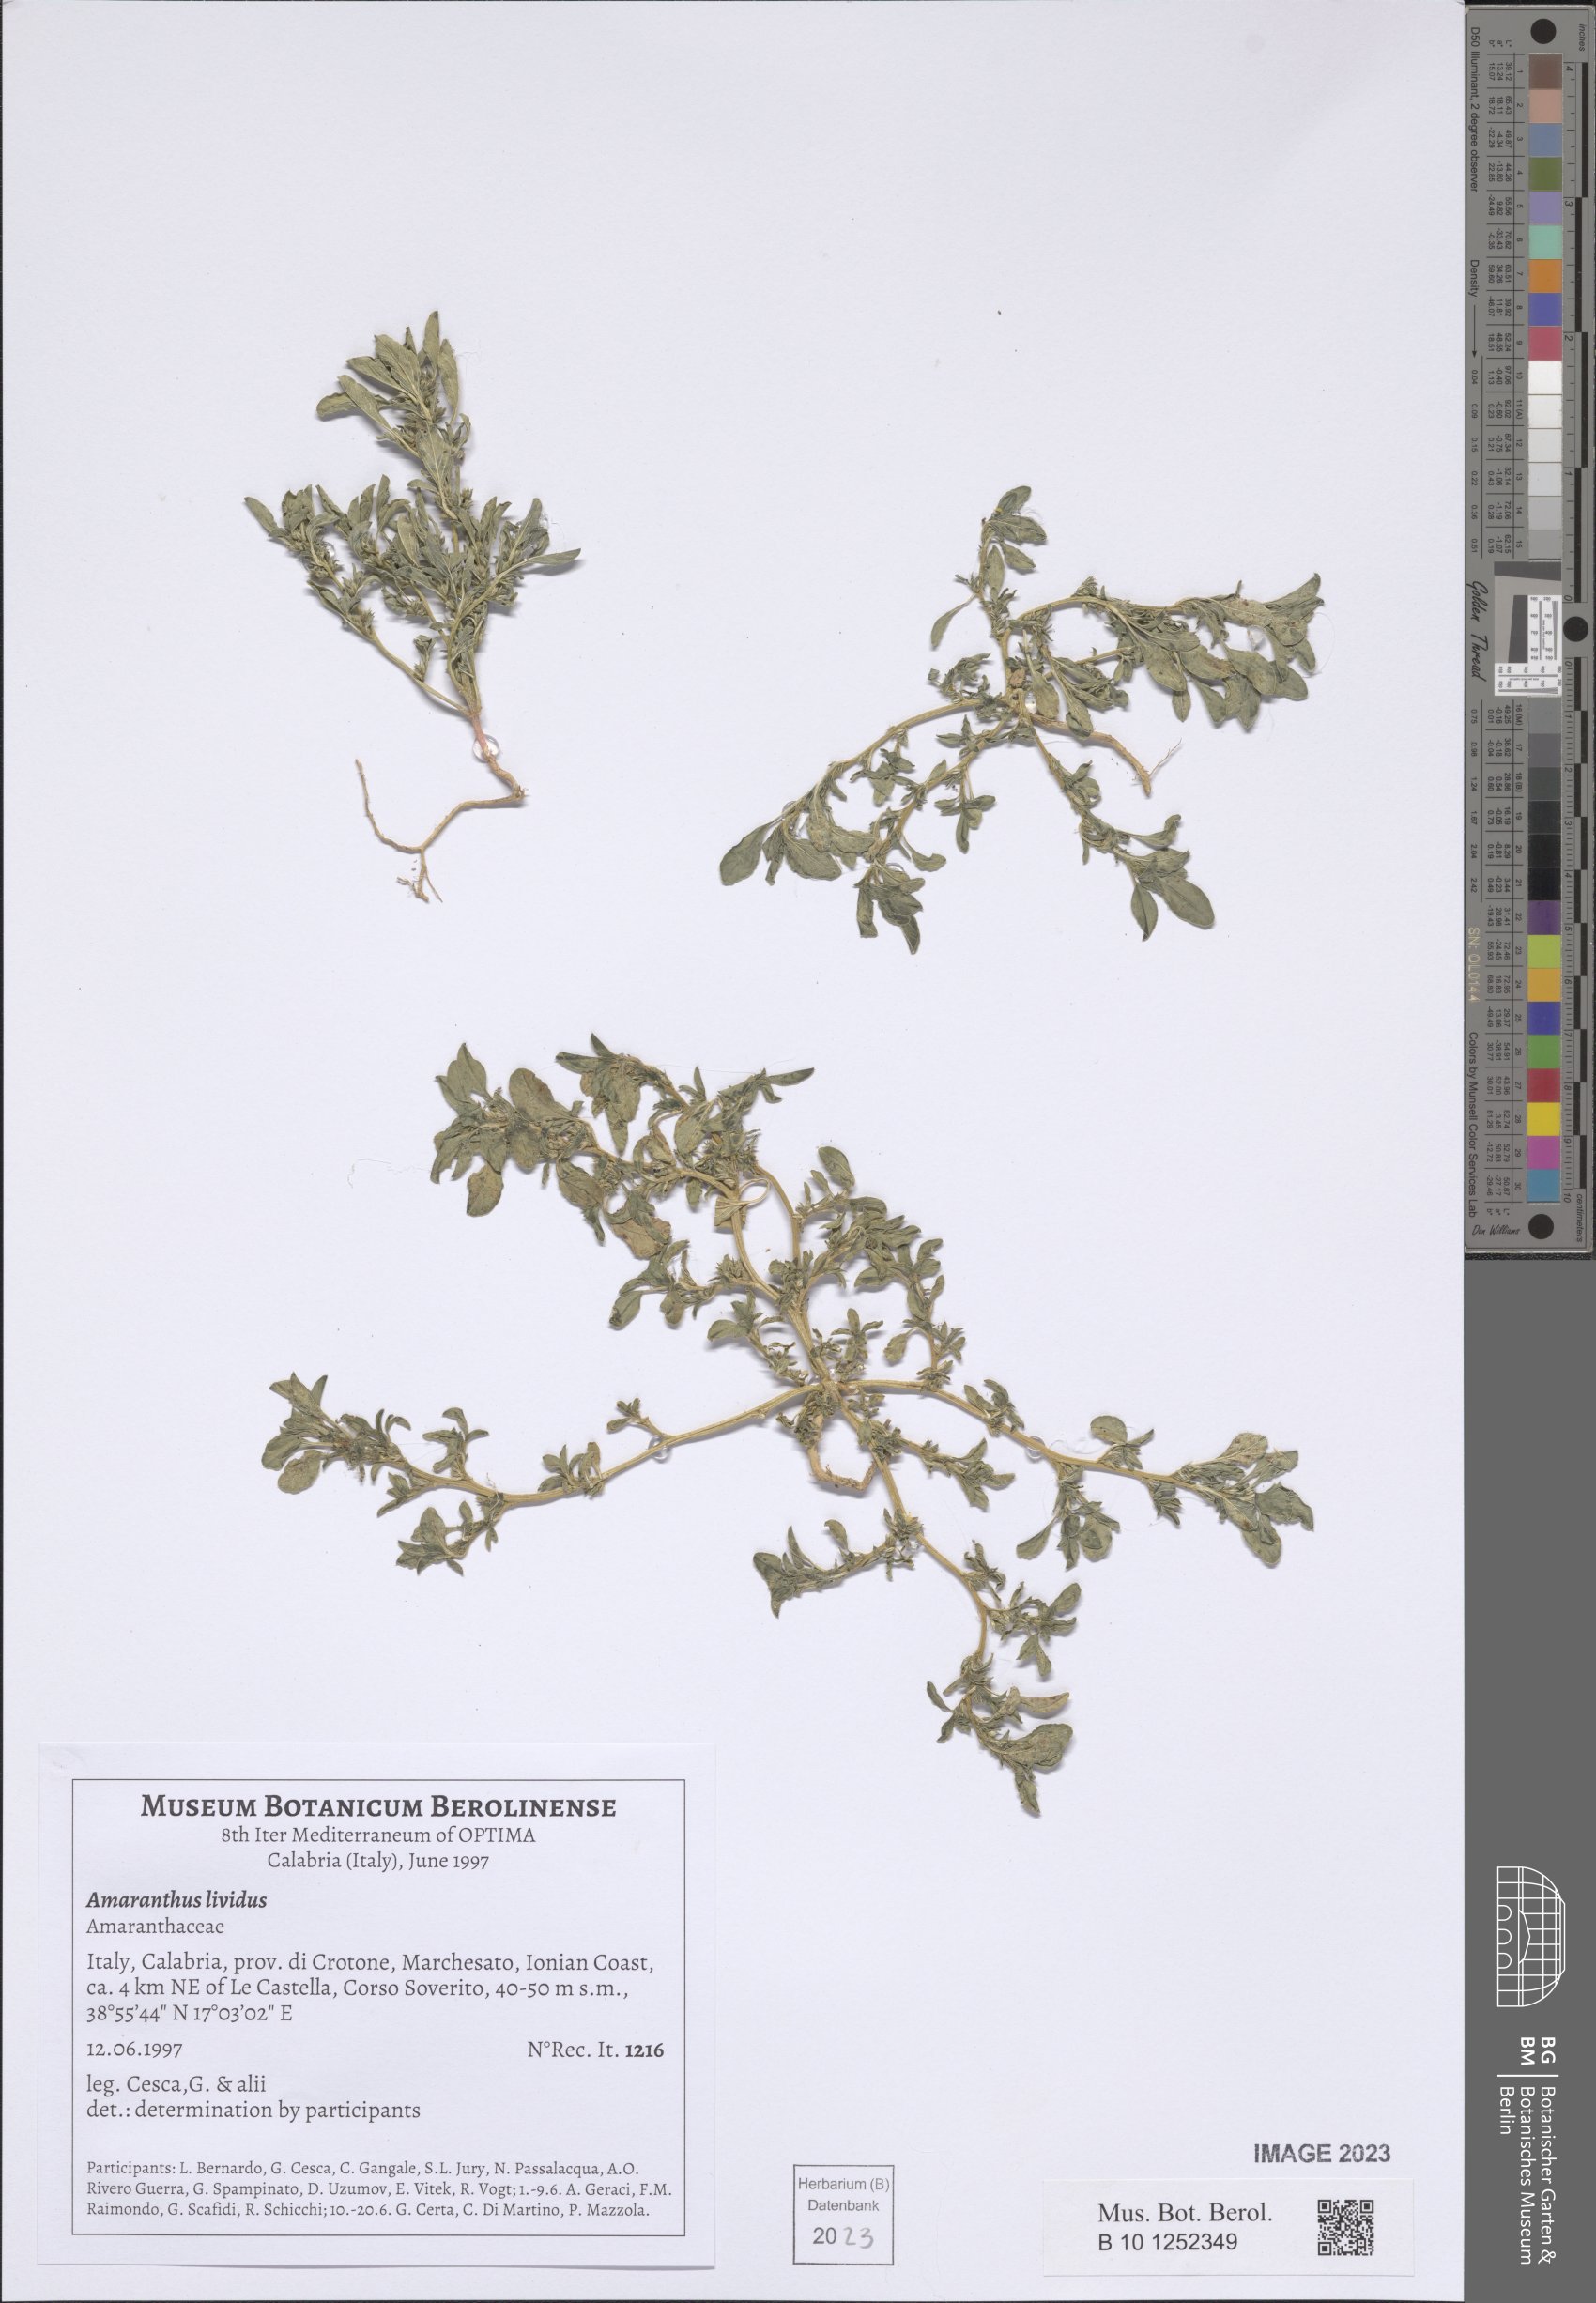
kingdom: Plantae
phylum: Tracheophyta
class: Magnoliopsida
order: Caryophyllales
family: Amaranthaceae
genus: Amaranthus
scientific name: Amaranthus blitum
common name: Purple amaranth
